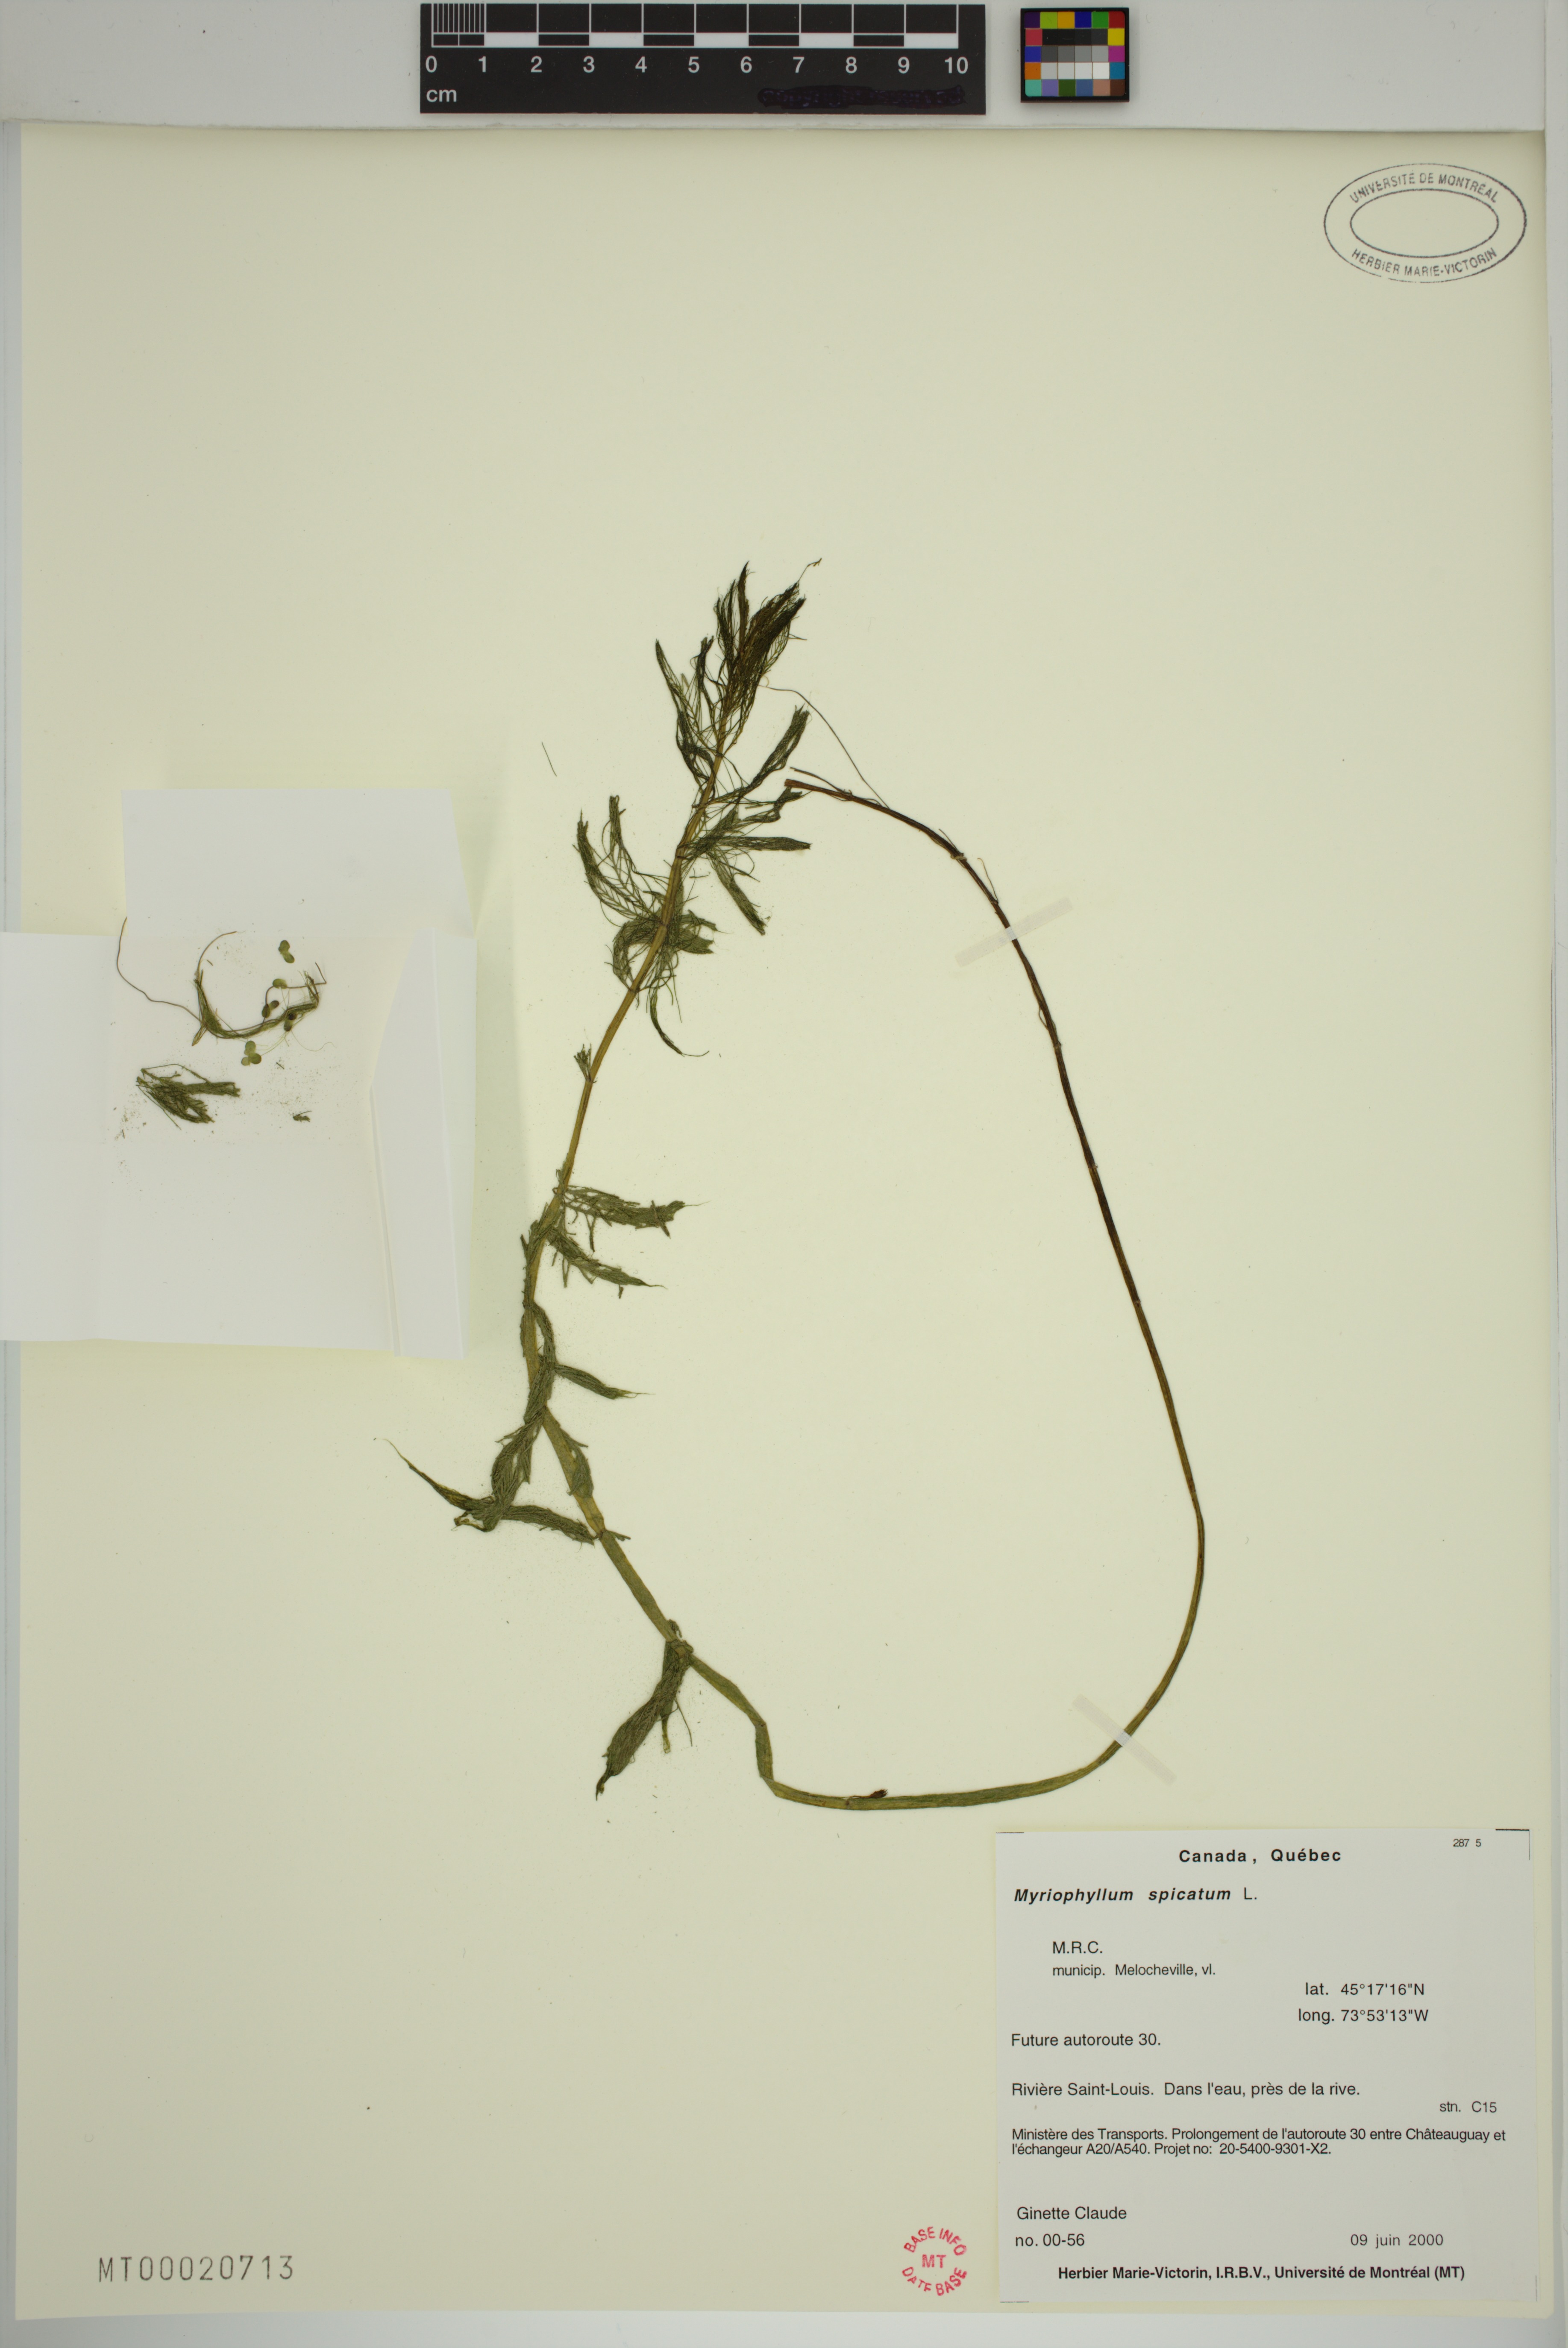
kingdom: Plantae
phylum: Tracheophyta
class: Magnoliopsida
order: Saxifragales
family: Haloragaceae
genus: Myriophyllum
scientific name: Myriophyllum spicatum
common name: Spiked water-milfoil
